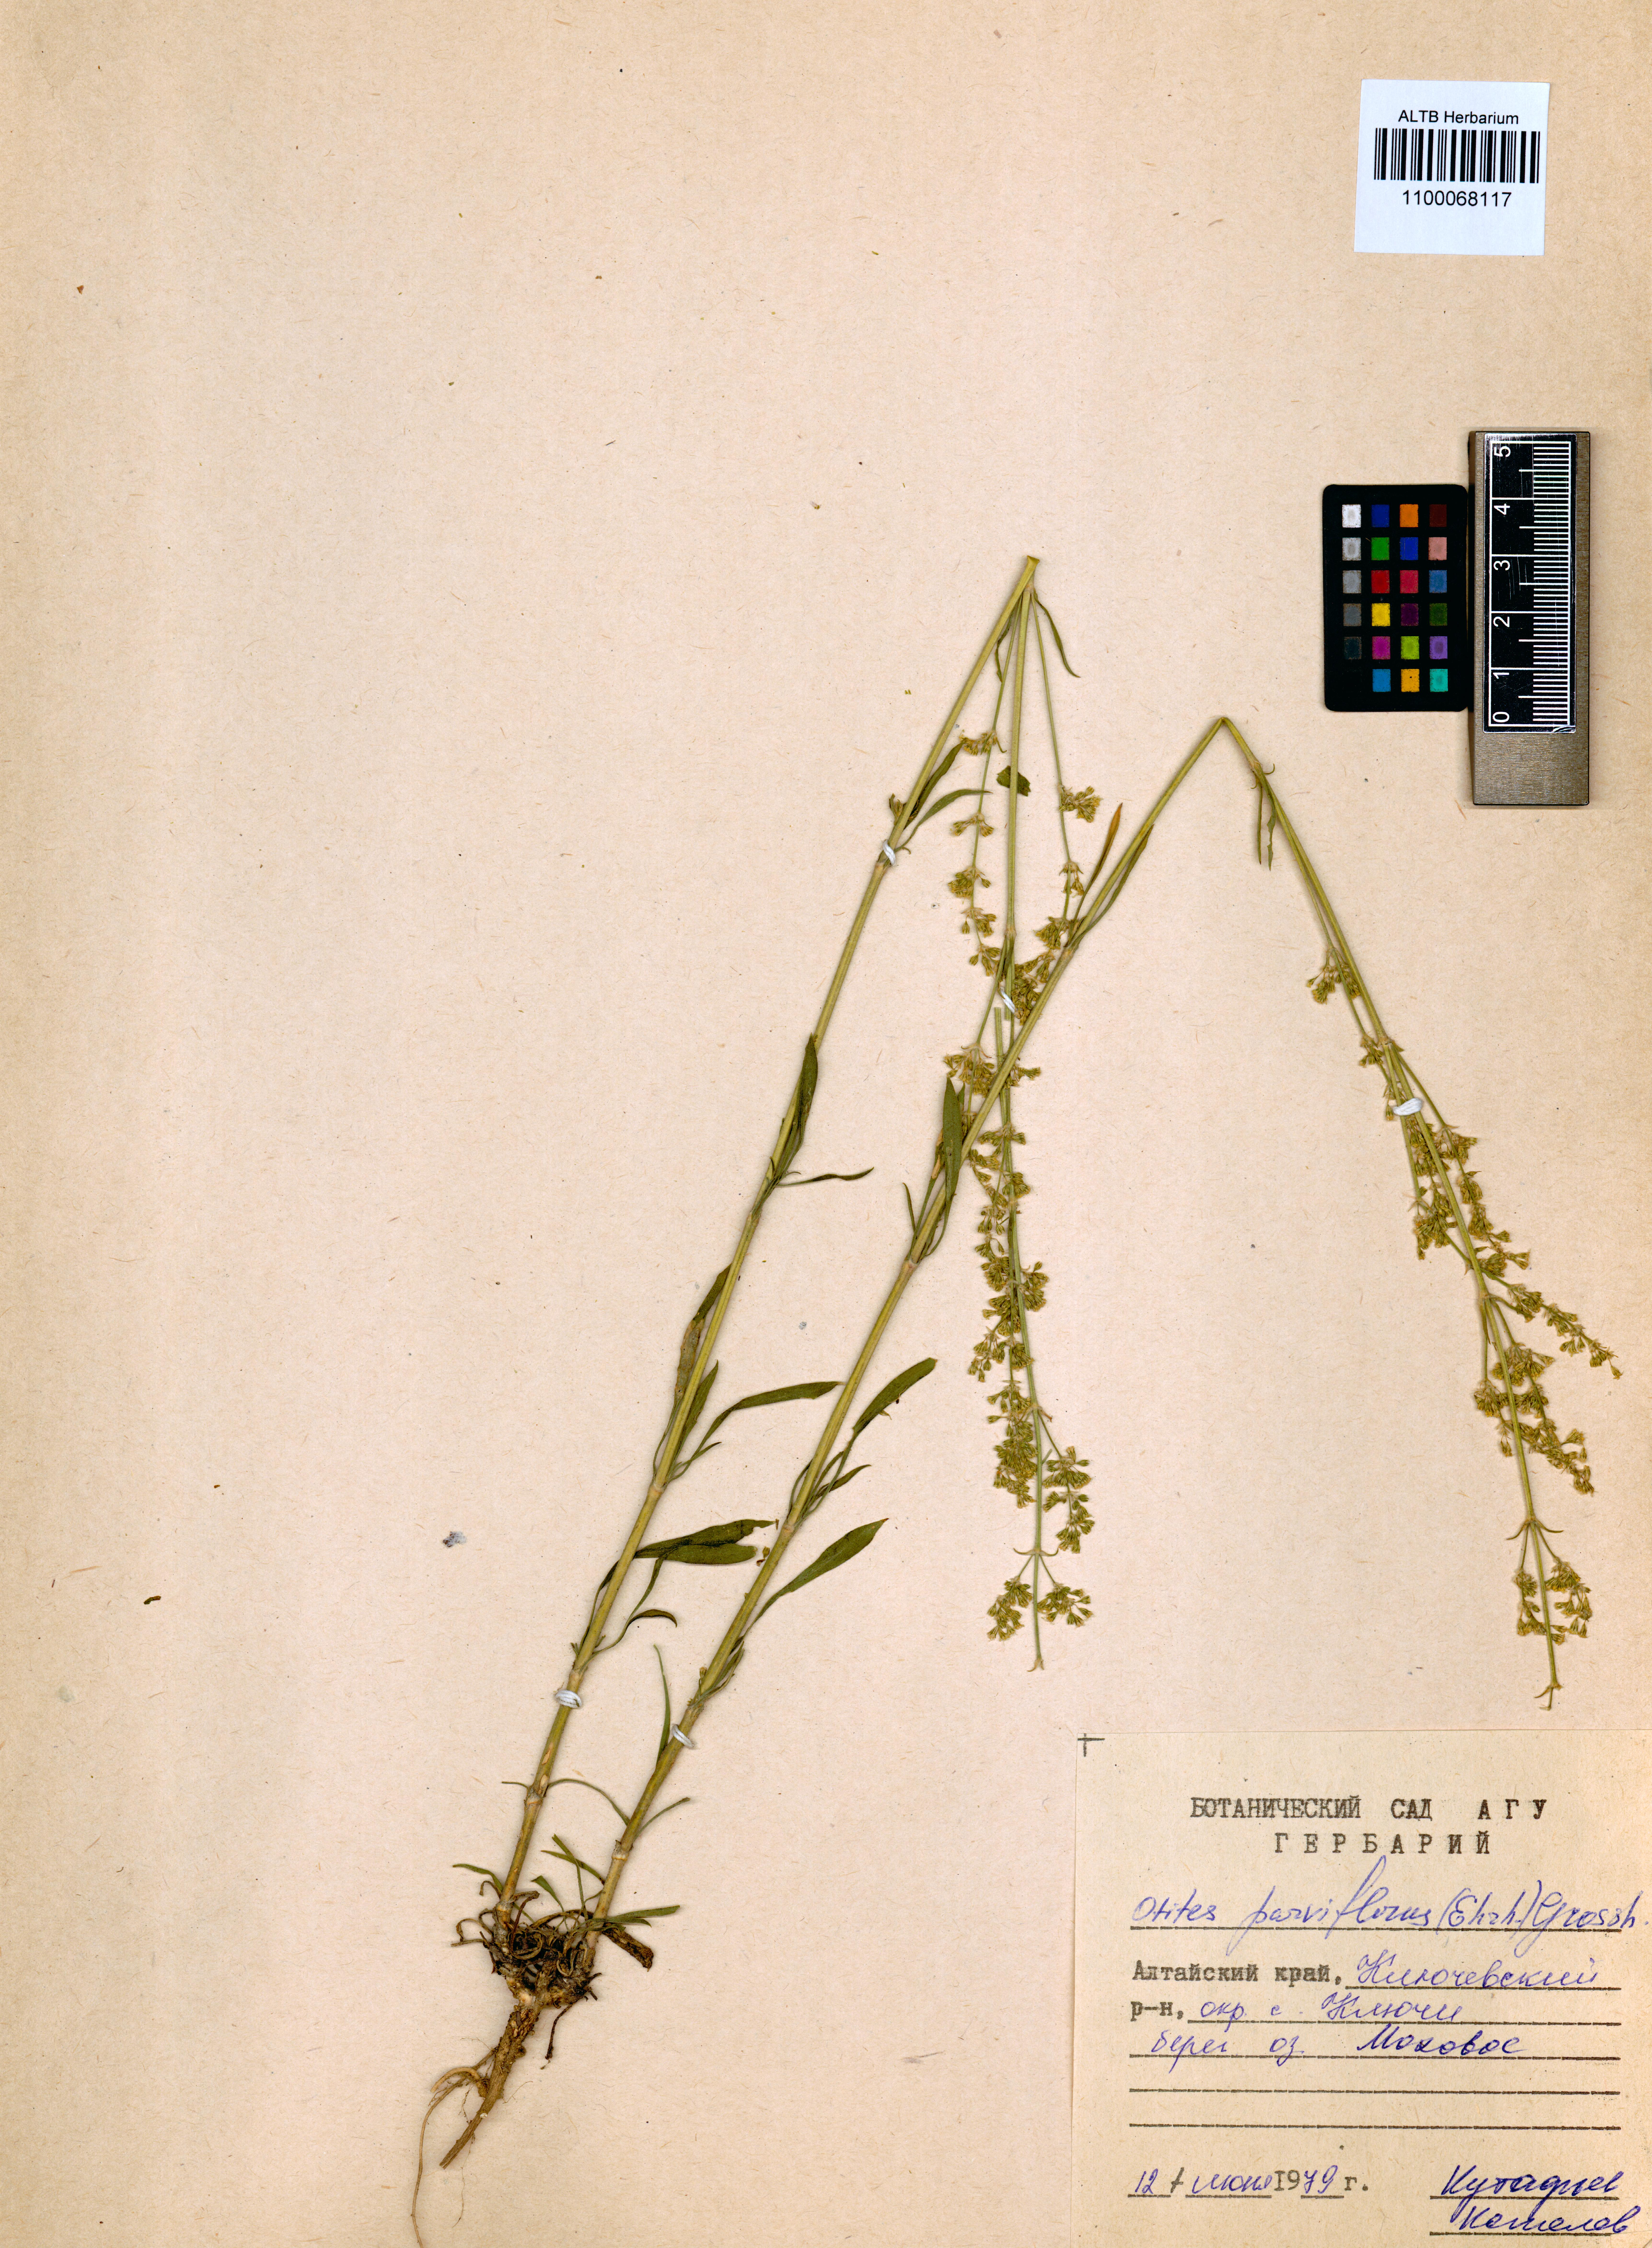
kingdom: Plantae
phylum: Tracheophyta
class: Magnoliopsida
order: Caryophyllales
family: Caryophyllaceae
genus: Silene
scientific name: Silene borysthenica
